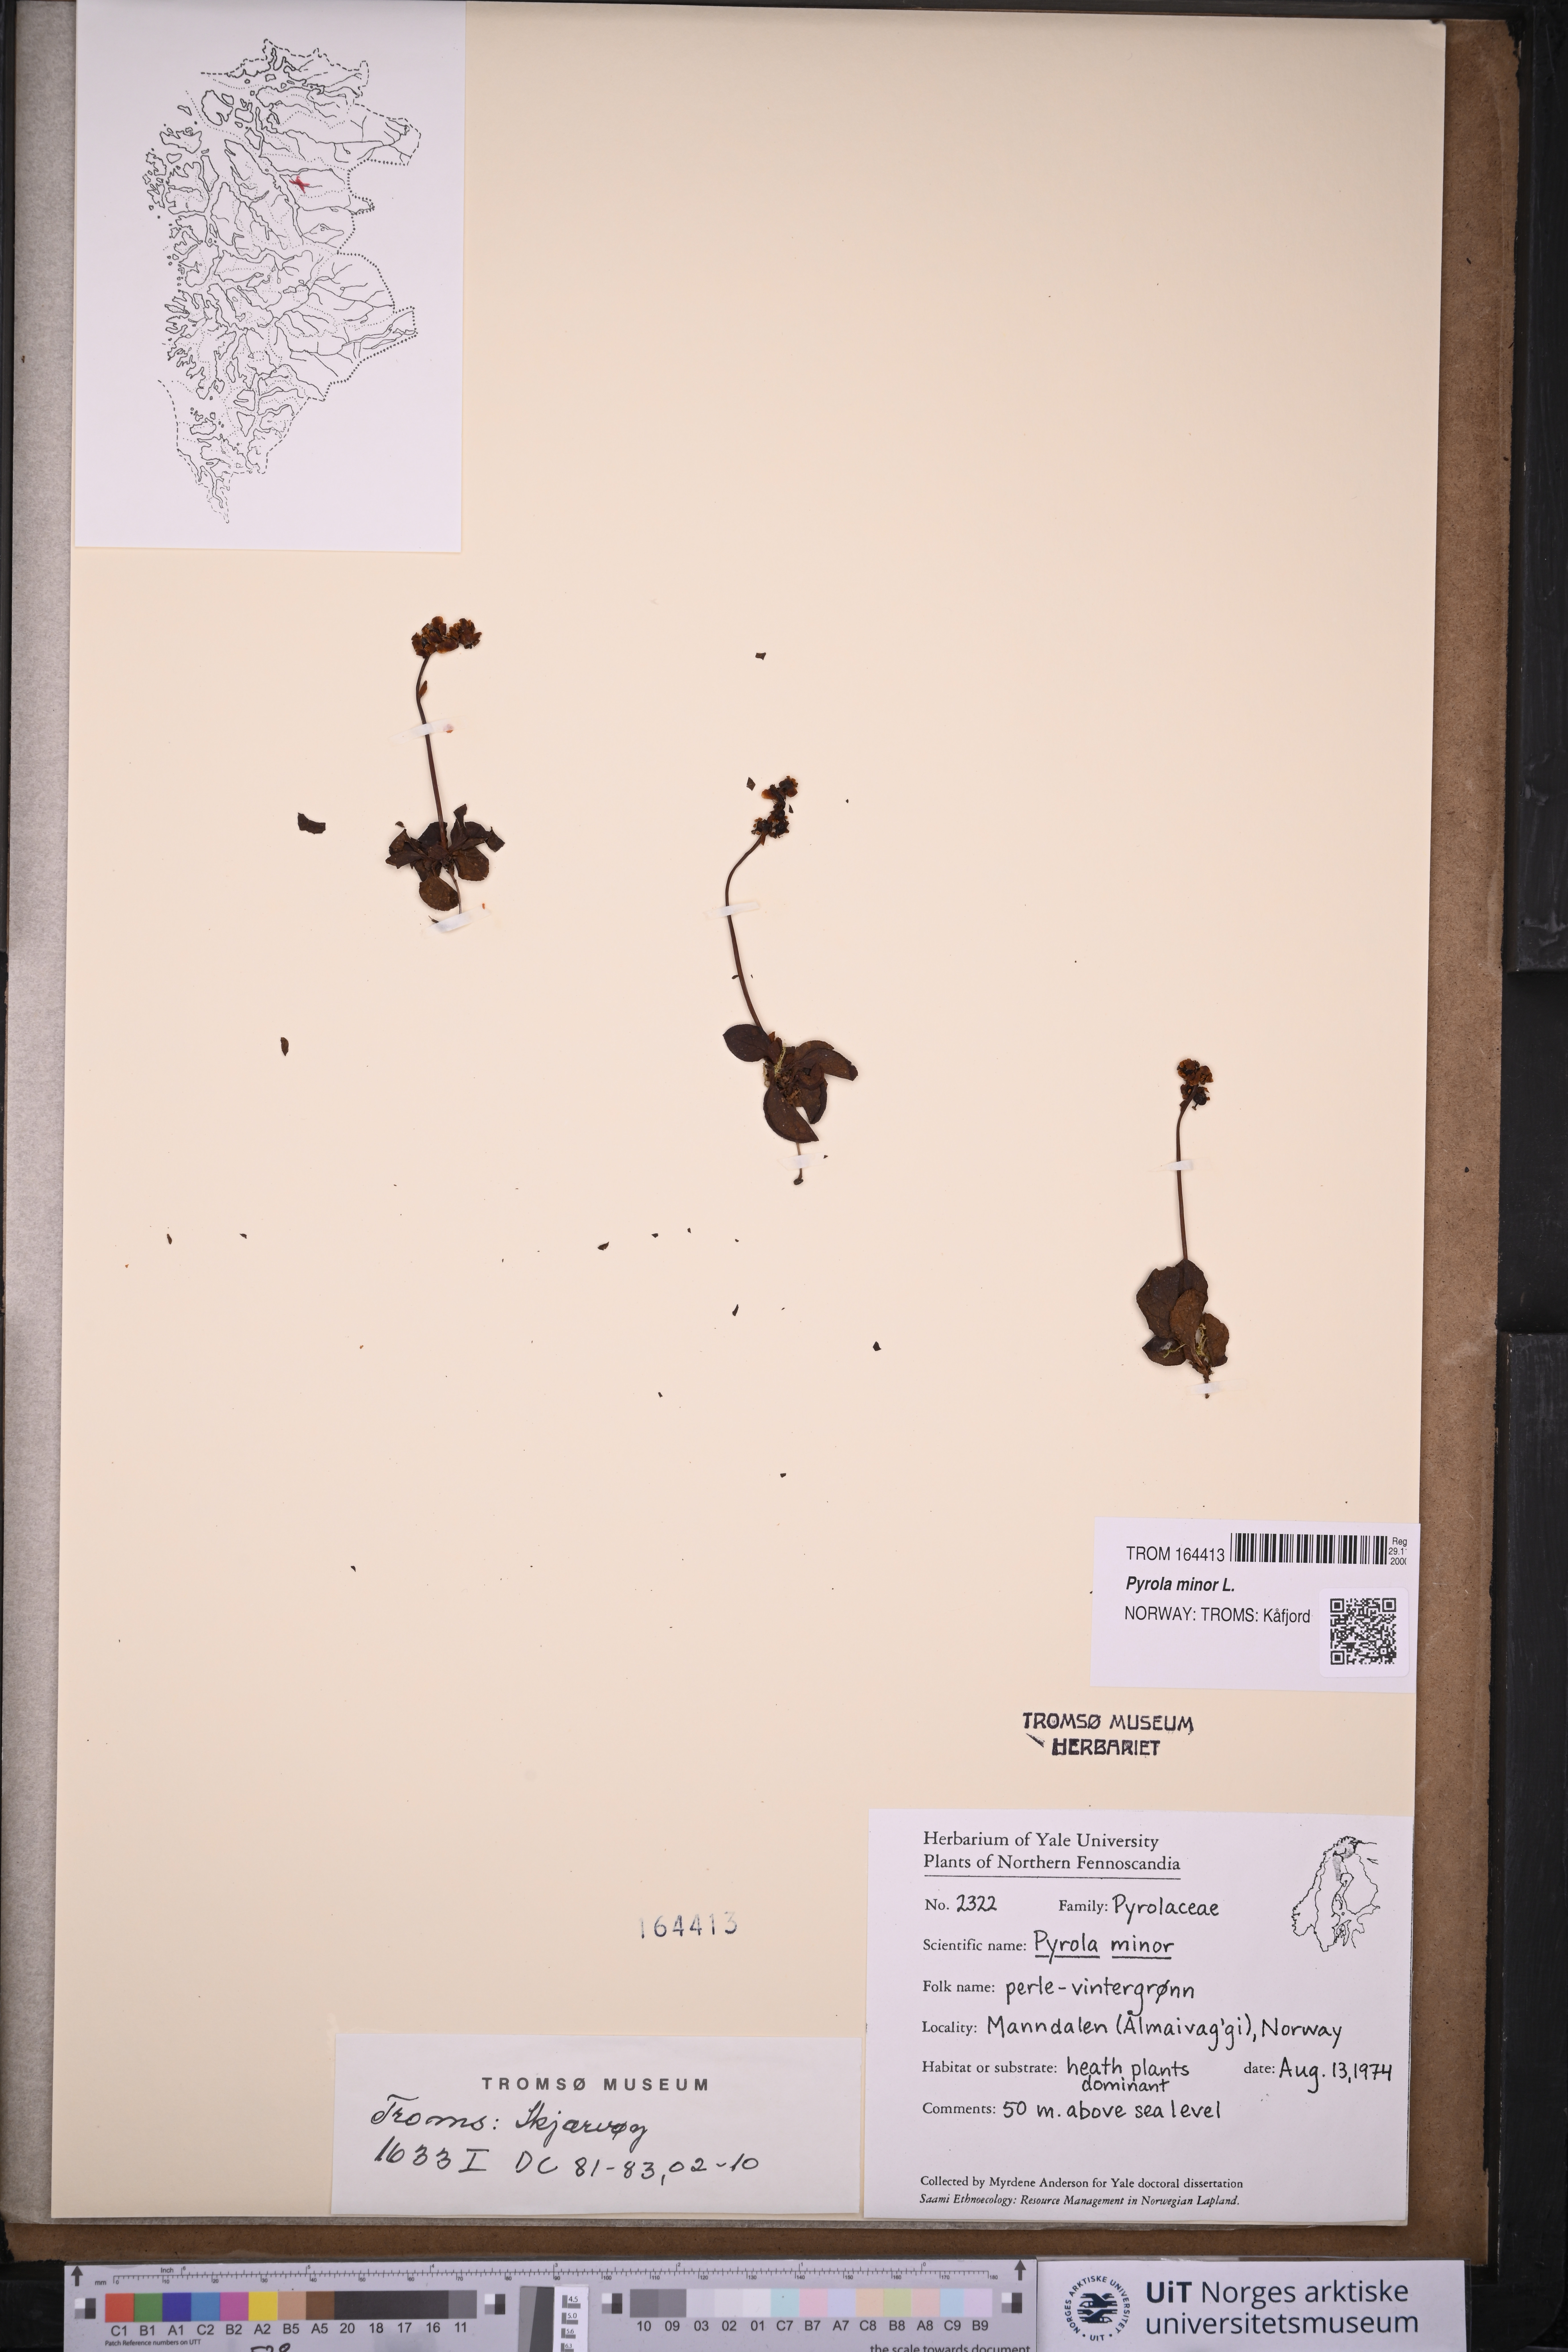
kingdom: Plantae
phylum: Tracheophyta
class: Magnoliopsida
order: Ericales
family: Ericaceae
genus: Pyrola
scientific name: Pyrola minor
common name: Common wintergreen
